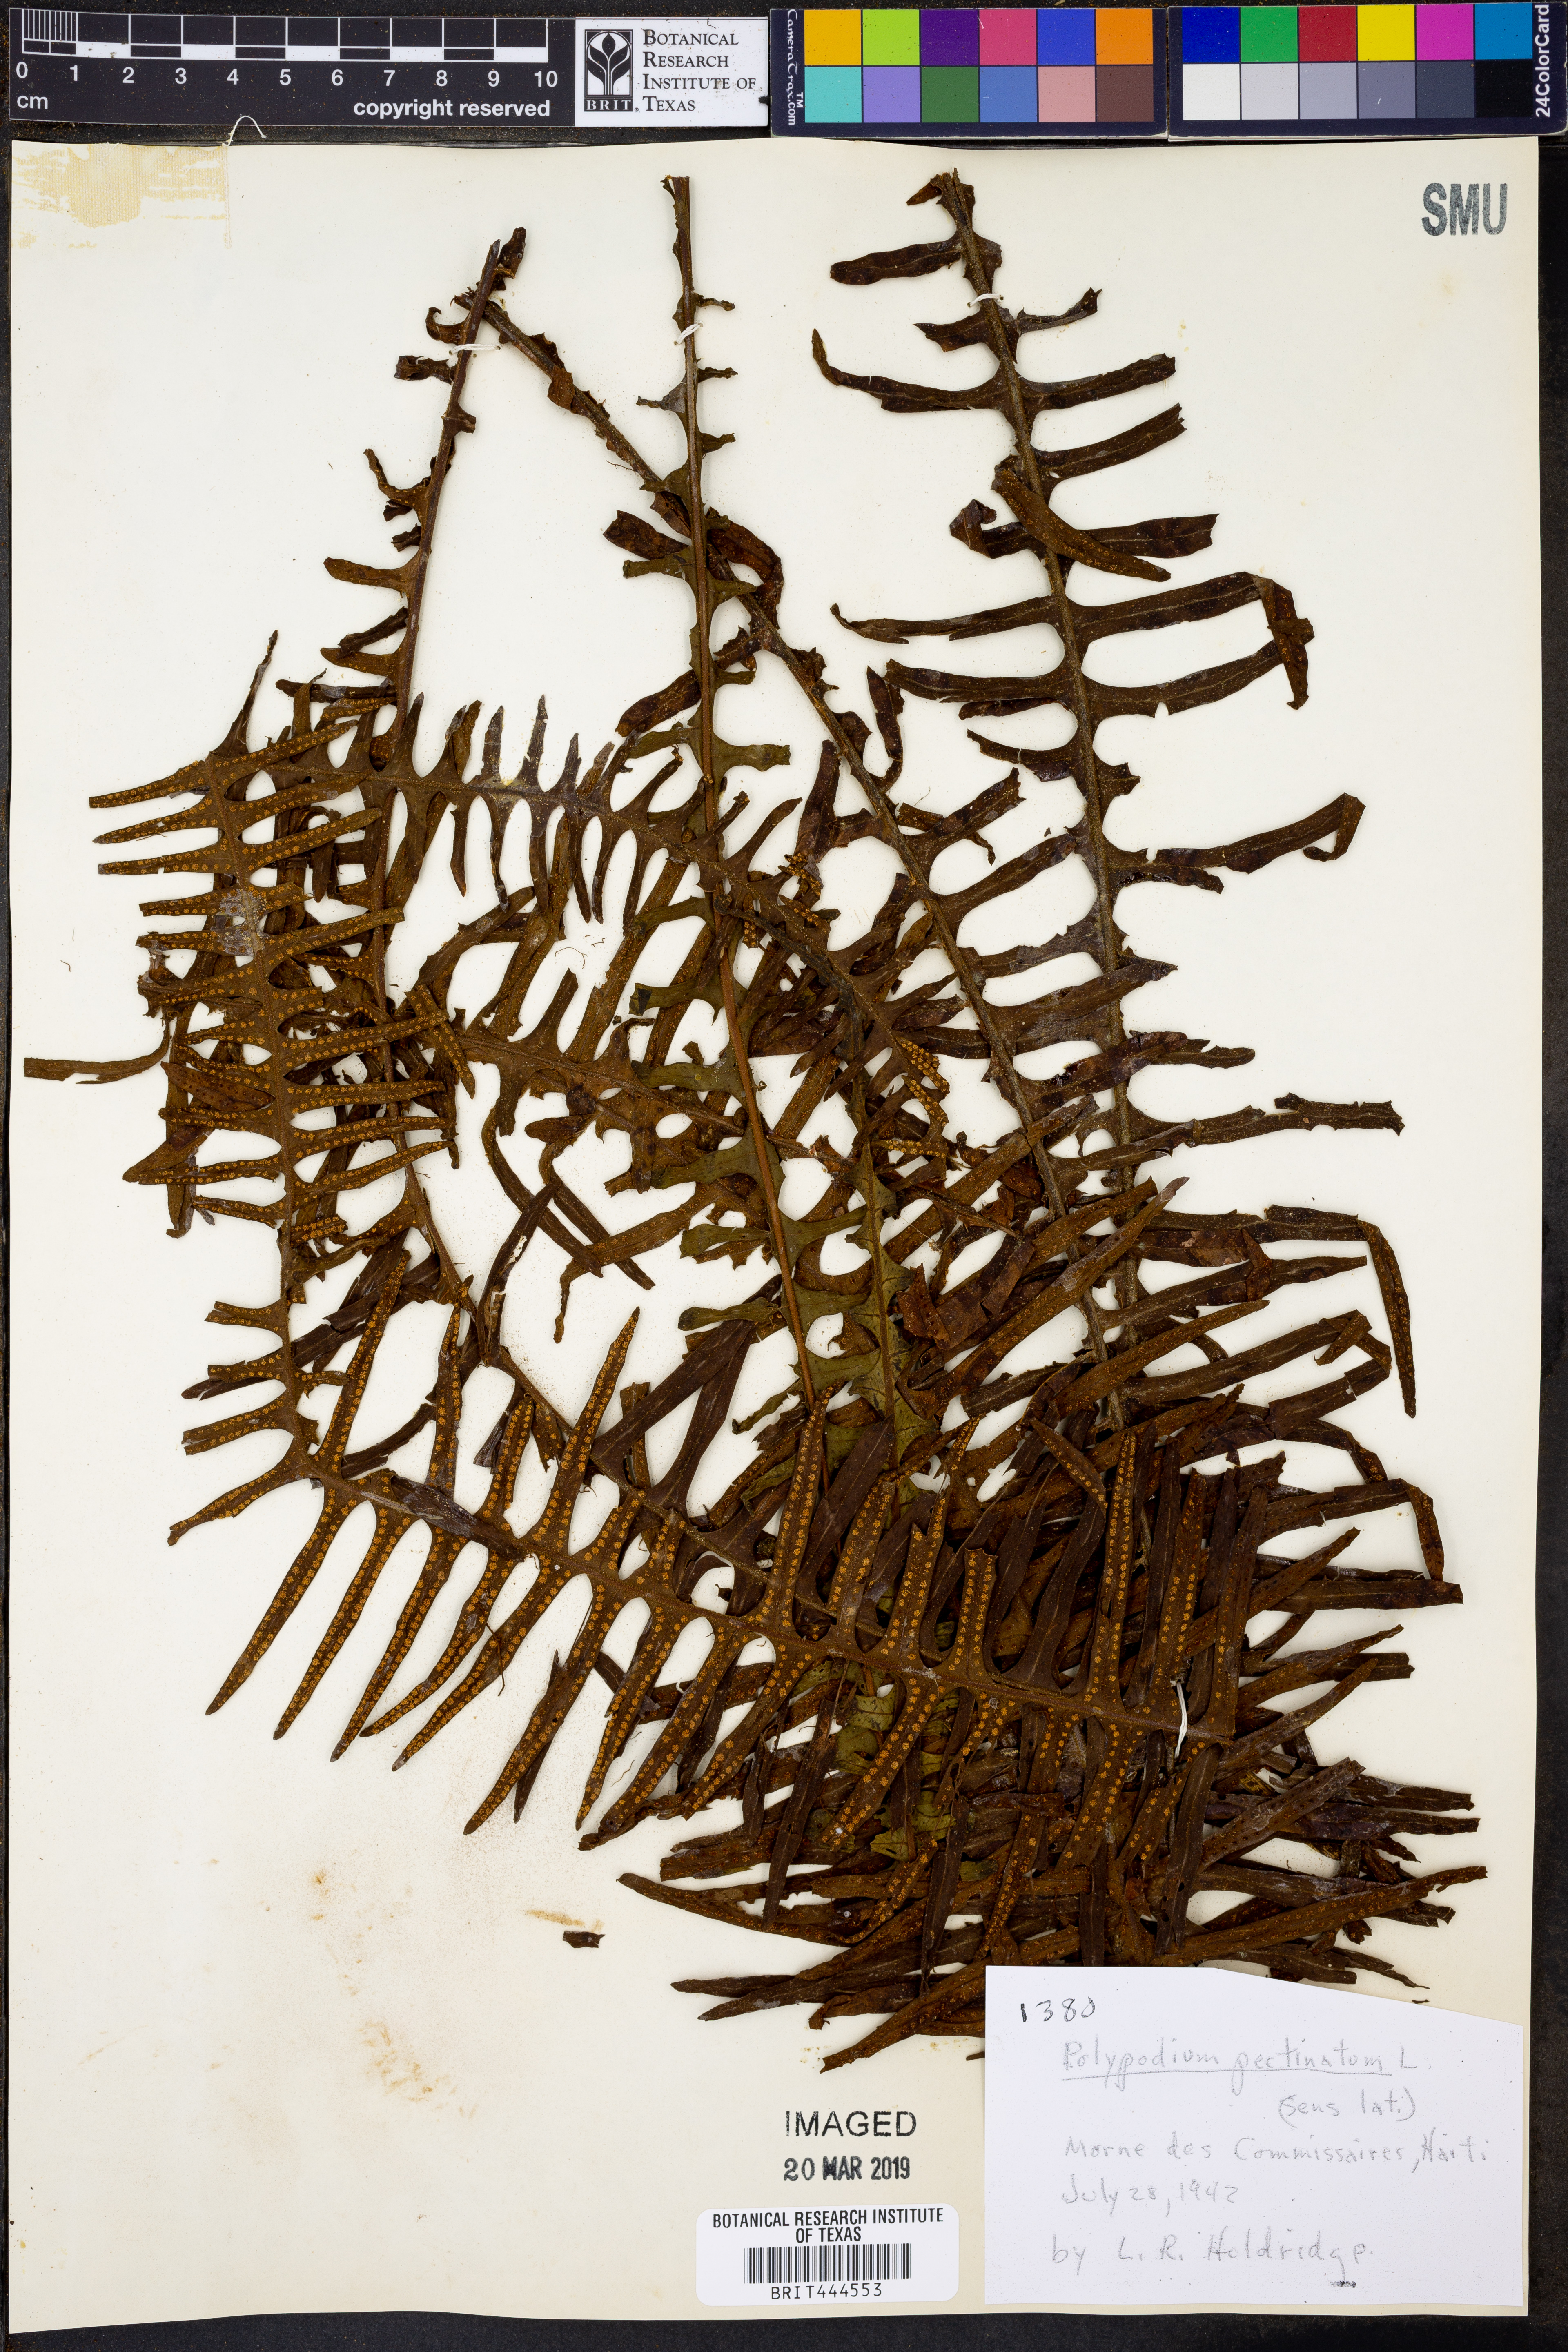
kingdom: Plantae
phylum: Tracheophyta
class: Polypodiopsida
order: Polypodiales
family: Polypodiaceae
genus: Pecluma
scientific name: Pecluma pectinata
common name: Msasa fern
